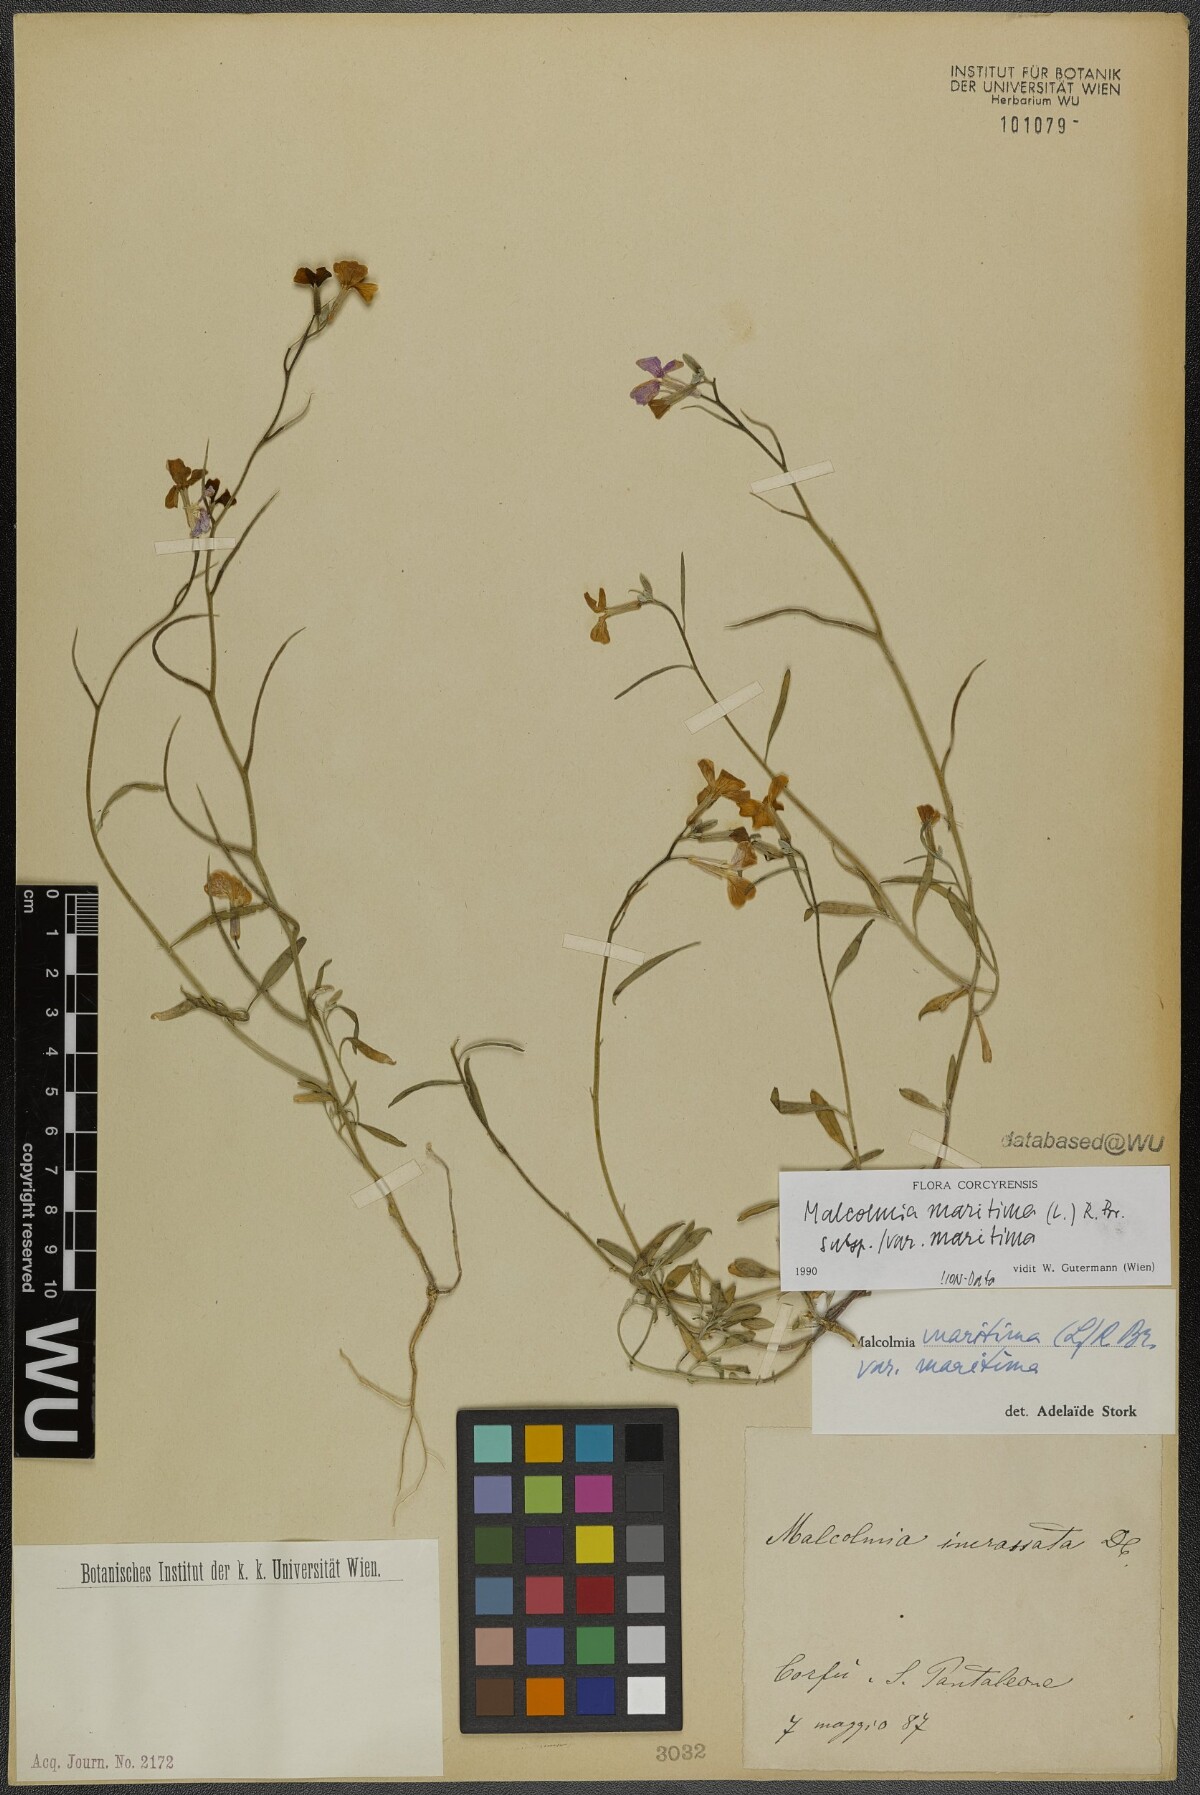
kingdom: Plantae
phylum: Tracheophyta
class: Magnoliopsida
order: Brassicales
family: Brassicaceae
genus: Malcolmia
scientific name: Malcolmia maritima
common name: Virginia stock
